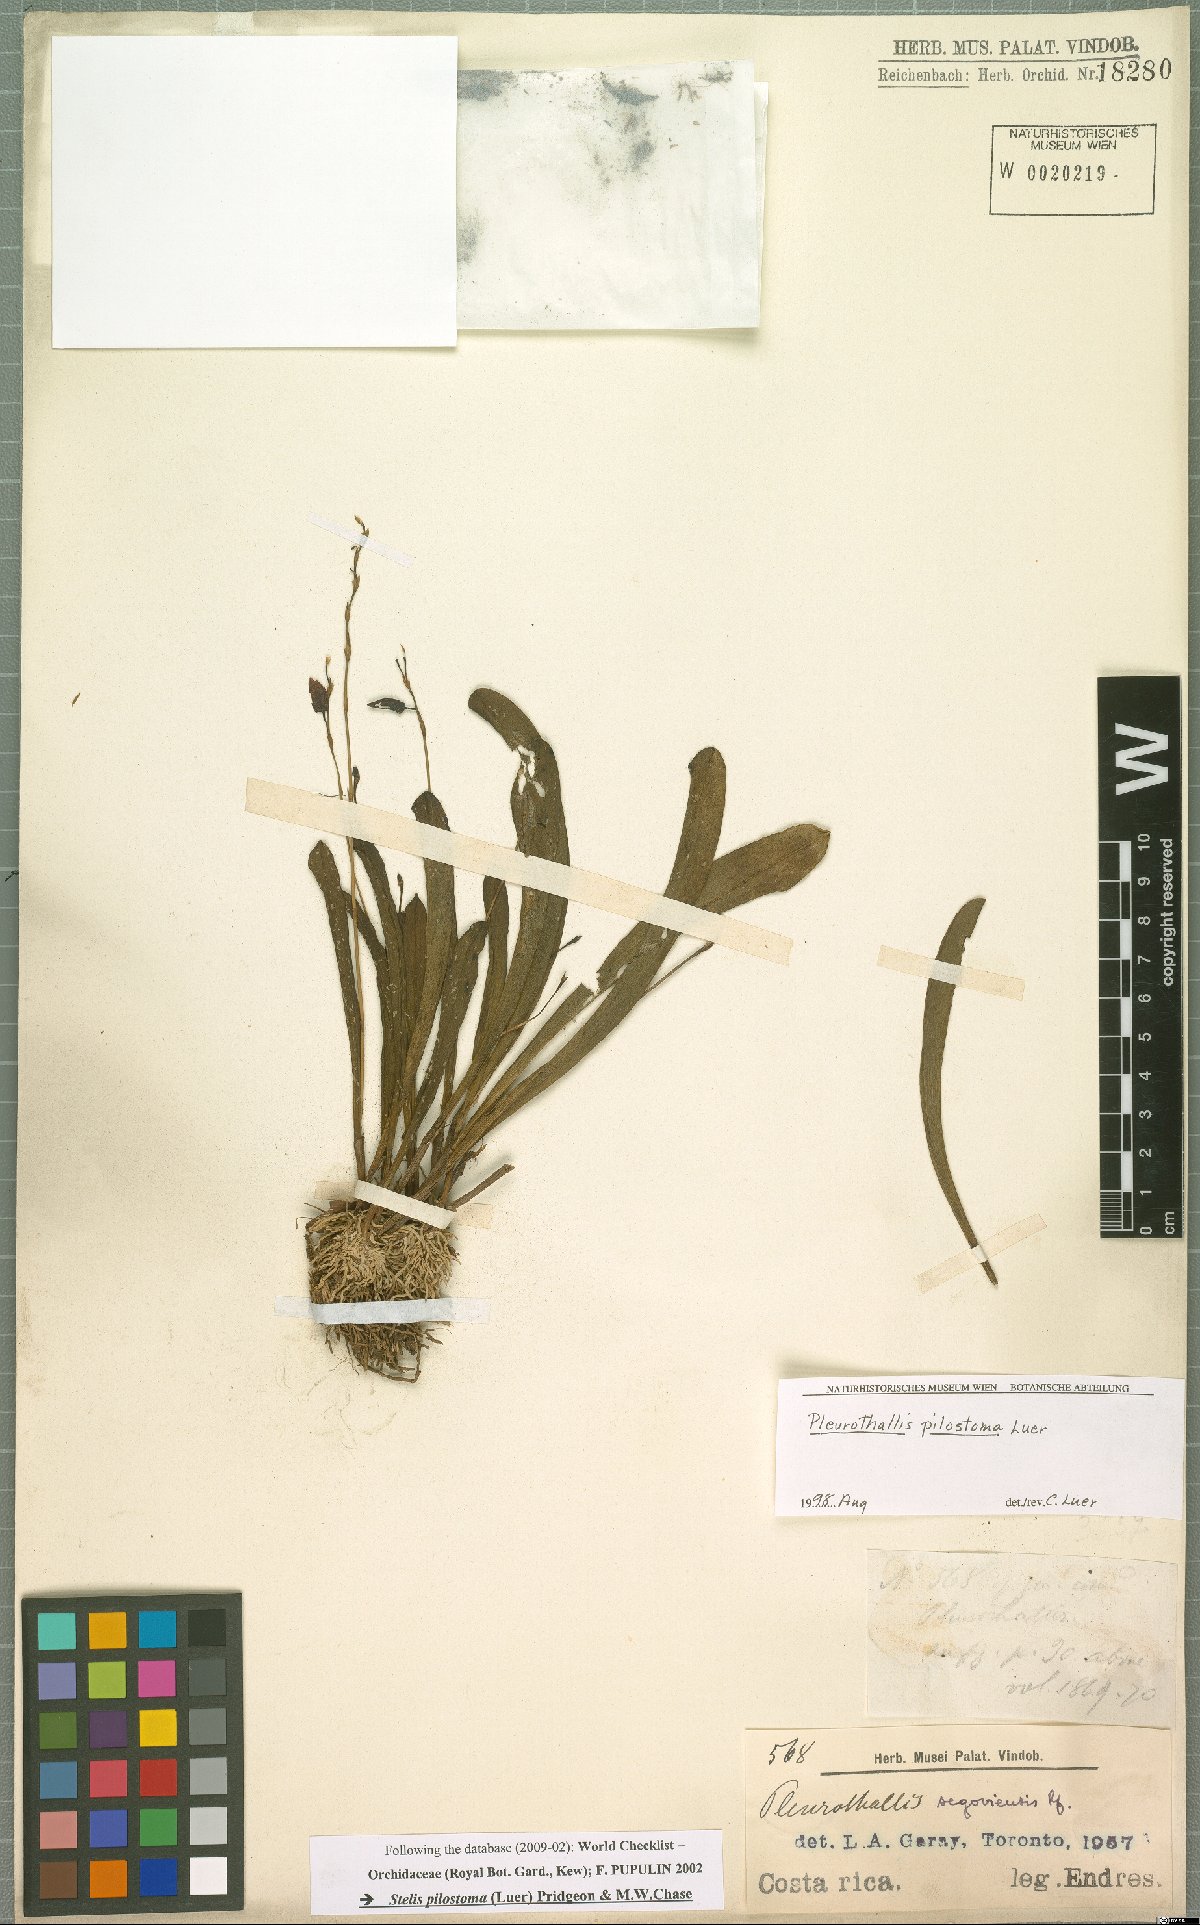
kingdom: Plantae
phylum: Tracheophyta
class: Liliopsida
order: Asparagales
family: Orchidaceae
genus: Stelis
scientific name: Stelis pilostoma
